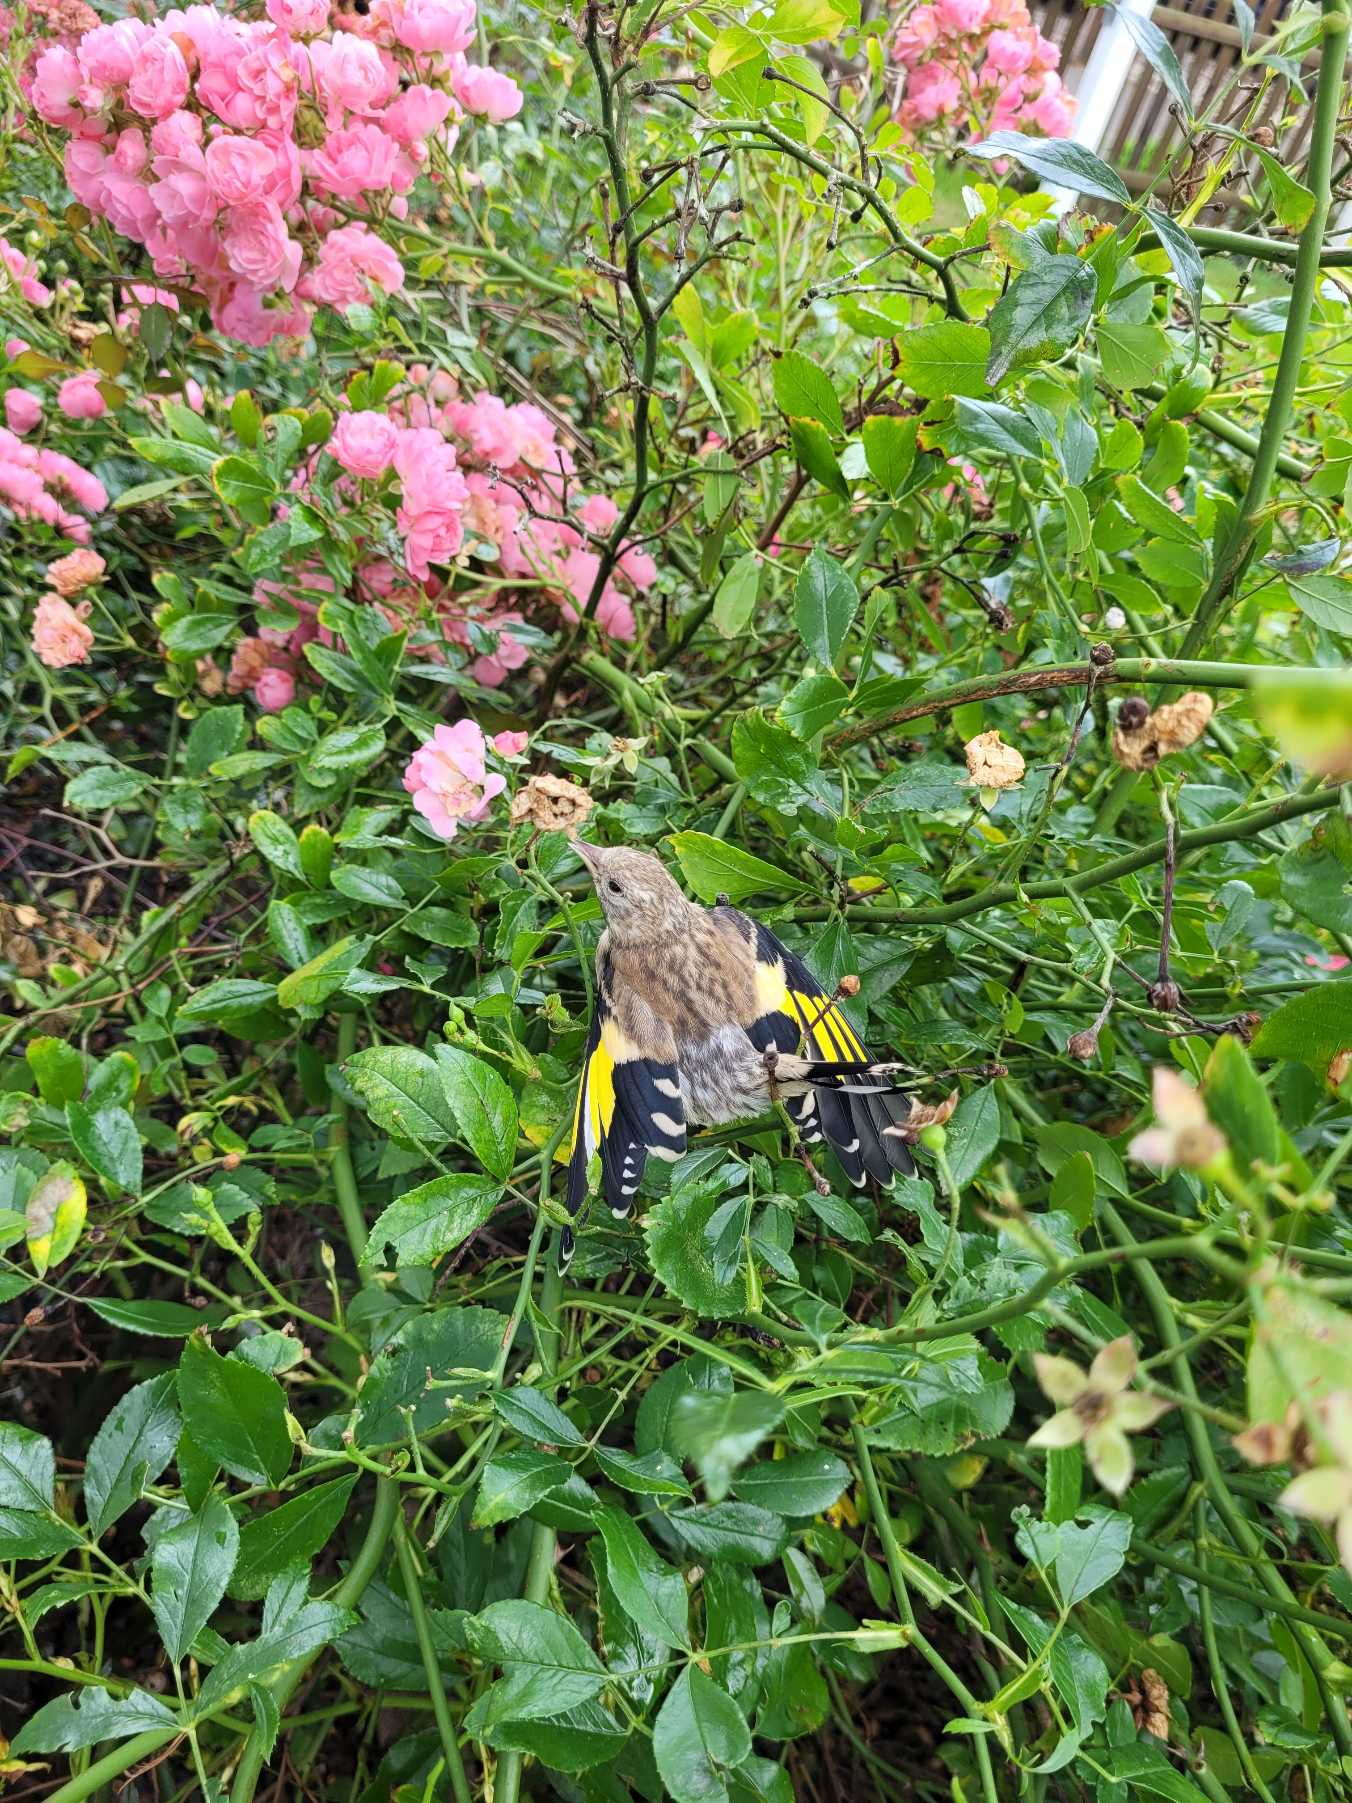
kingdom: Animalia
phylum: Chordata
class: Aves
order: Passeriformes
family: Fringillidae
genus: Carduelis
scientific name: Carduelis carduelis
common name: Stillits
